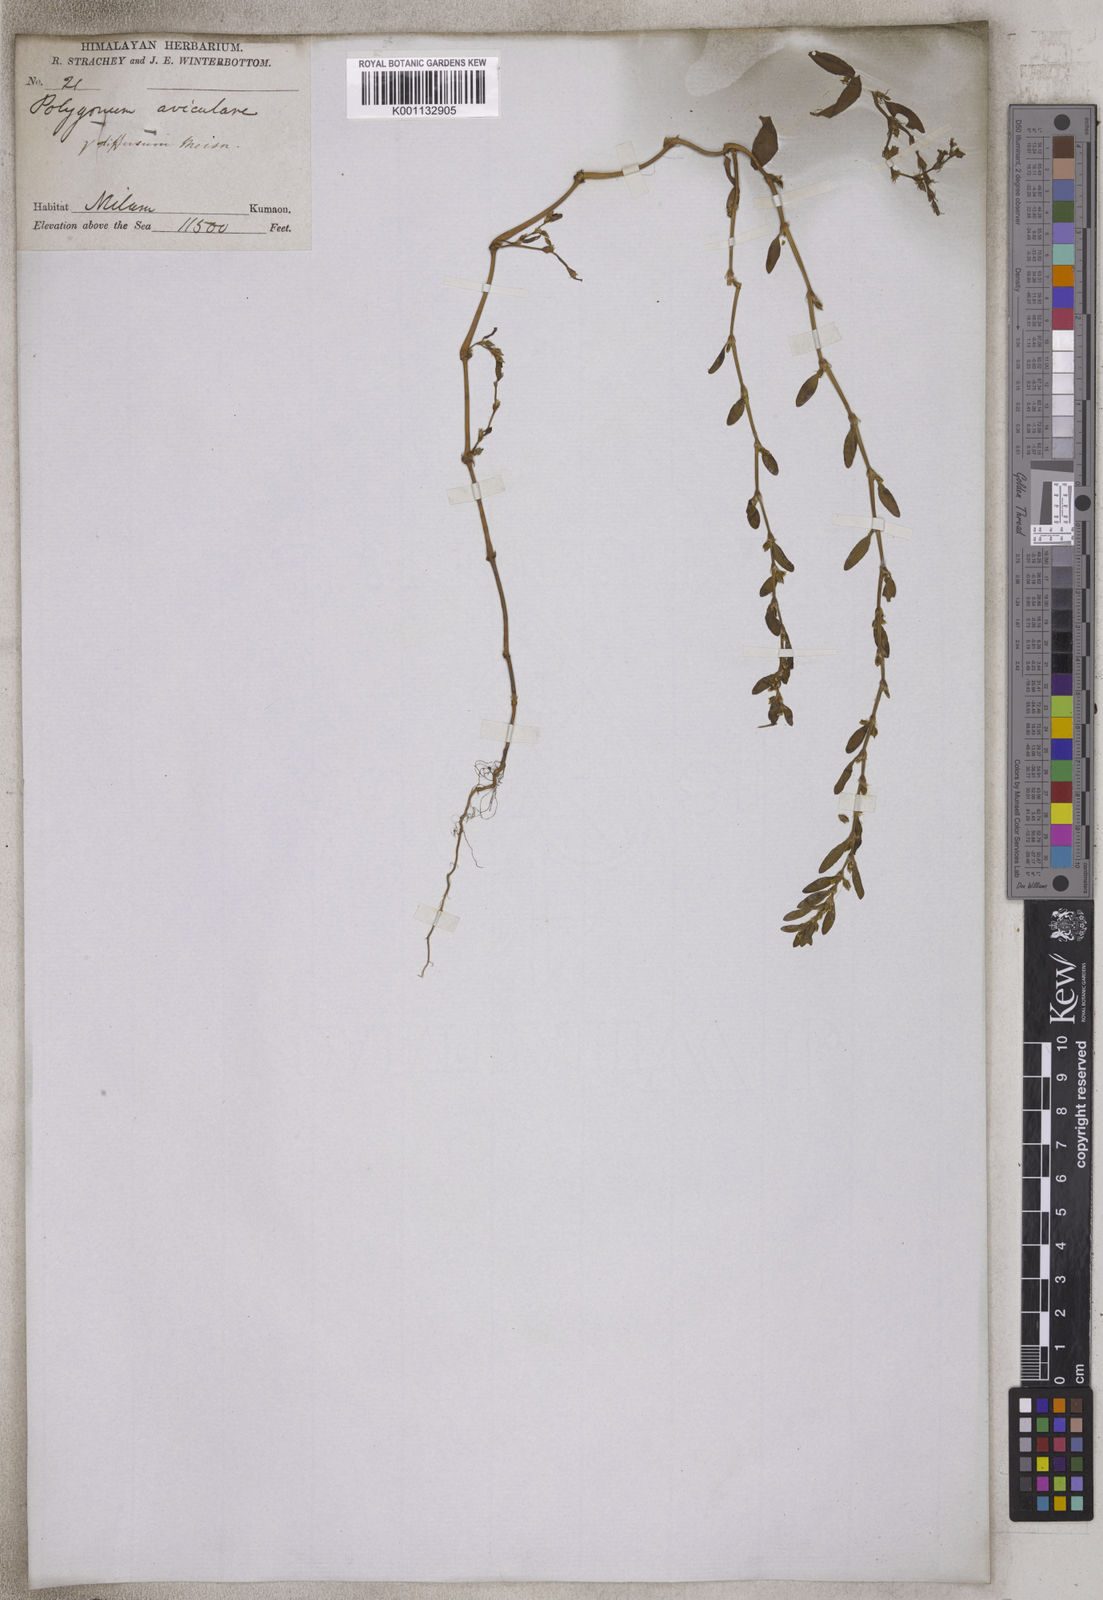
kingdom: Plantae
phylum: Tracheophyta
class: Magnoliopsida
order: Caryophyllales
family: Polygonaceae
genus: Polygonum
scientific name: Polygonum aviculare
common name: Prostrate knotweed
